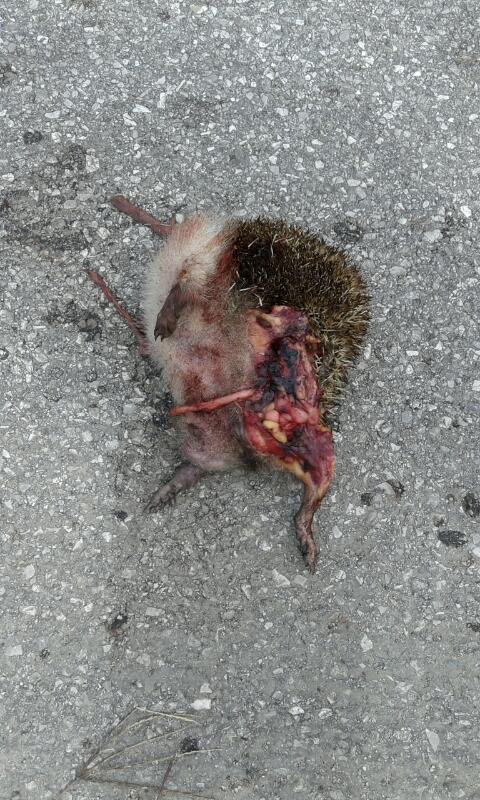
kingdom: Animalia
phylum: Chordata
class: Mammalia
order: Erinaceomorpha
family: Erinaceidae
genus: Erinaceus
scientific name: Erinaceus
